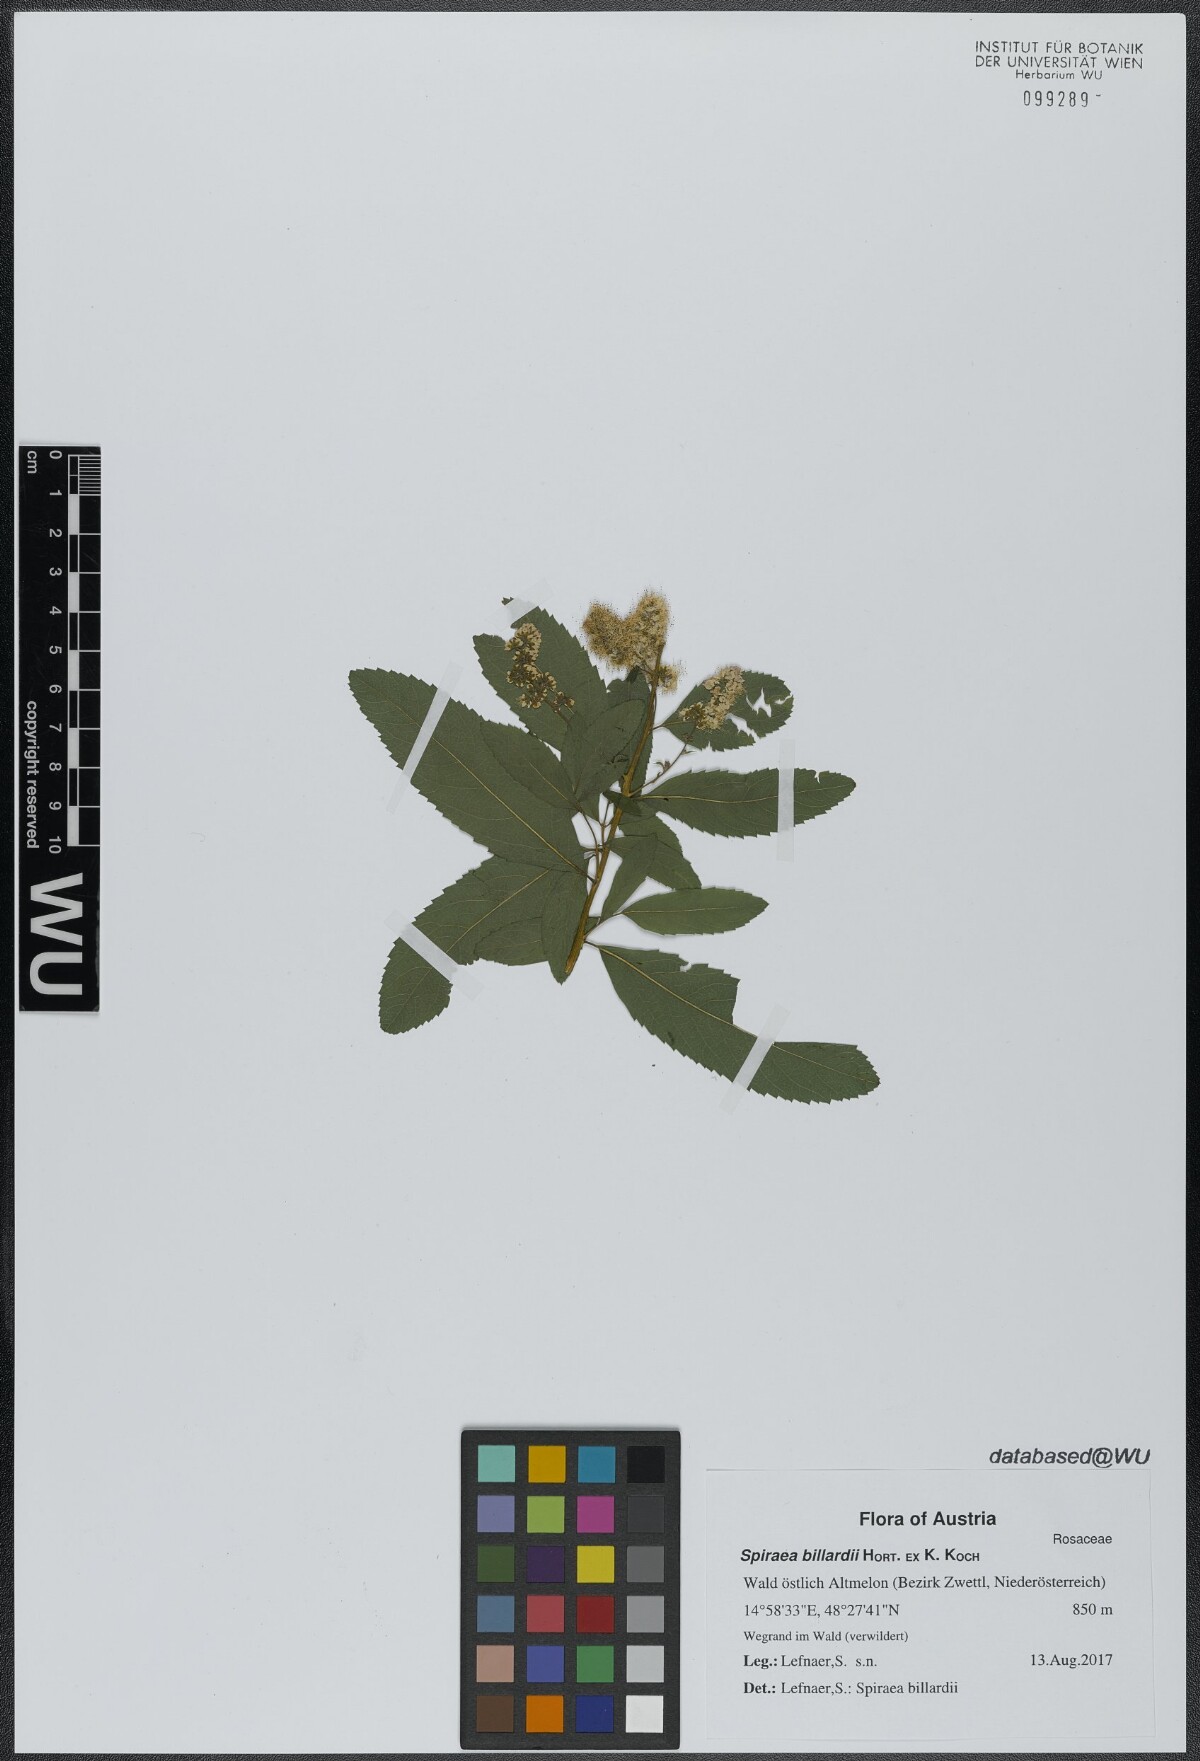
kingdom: Plantae
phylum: Tracheophyta
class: Magnoliopsida
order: Rosales
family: Rosaceae
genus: Spiraea
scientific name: Spiraea billardii
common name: Billard's bridewort
